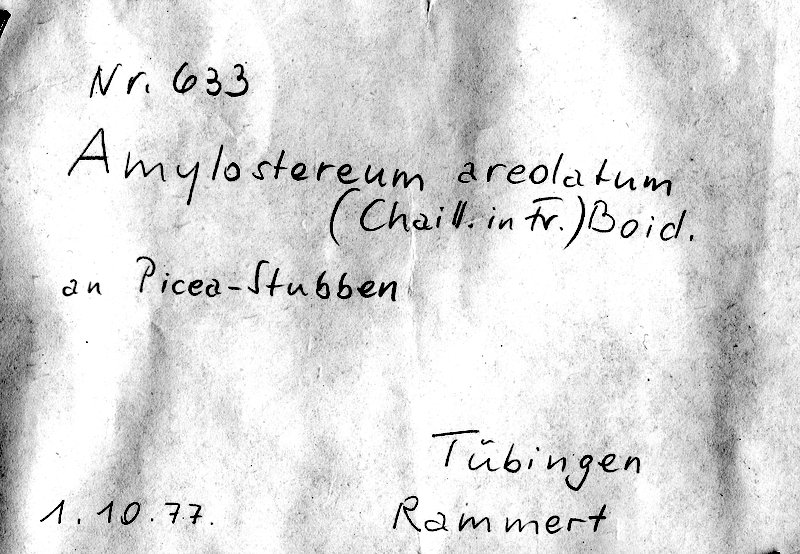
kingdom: Fungi
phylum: Basidiomycota
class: Agaricomycetes
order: Russulales
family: Echinodontiaceae
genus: Amylostereum
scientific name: Amylostereum areolatum
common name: White rot fungus
